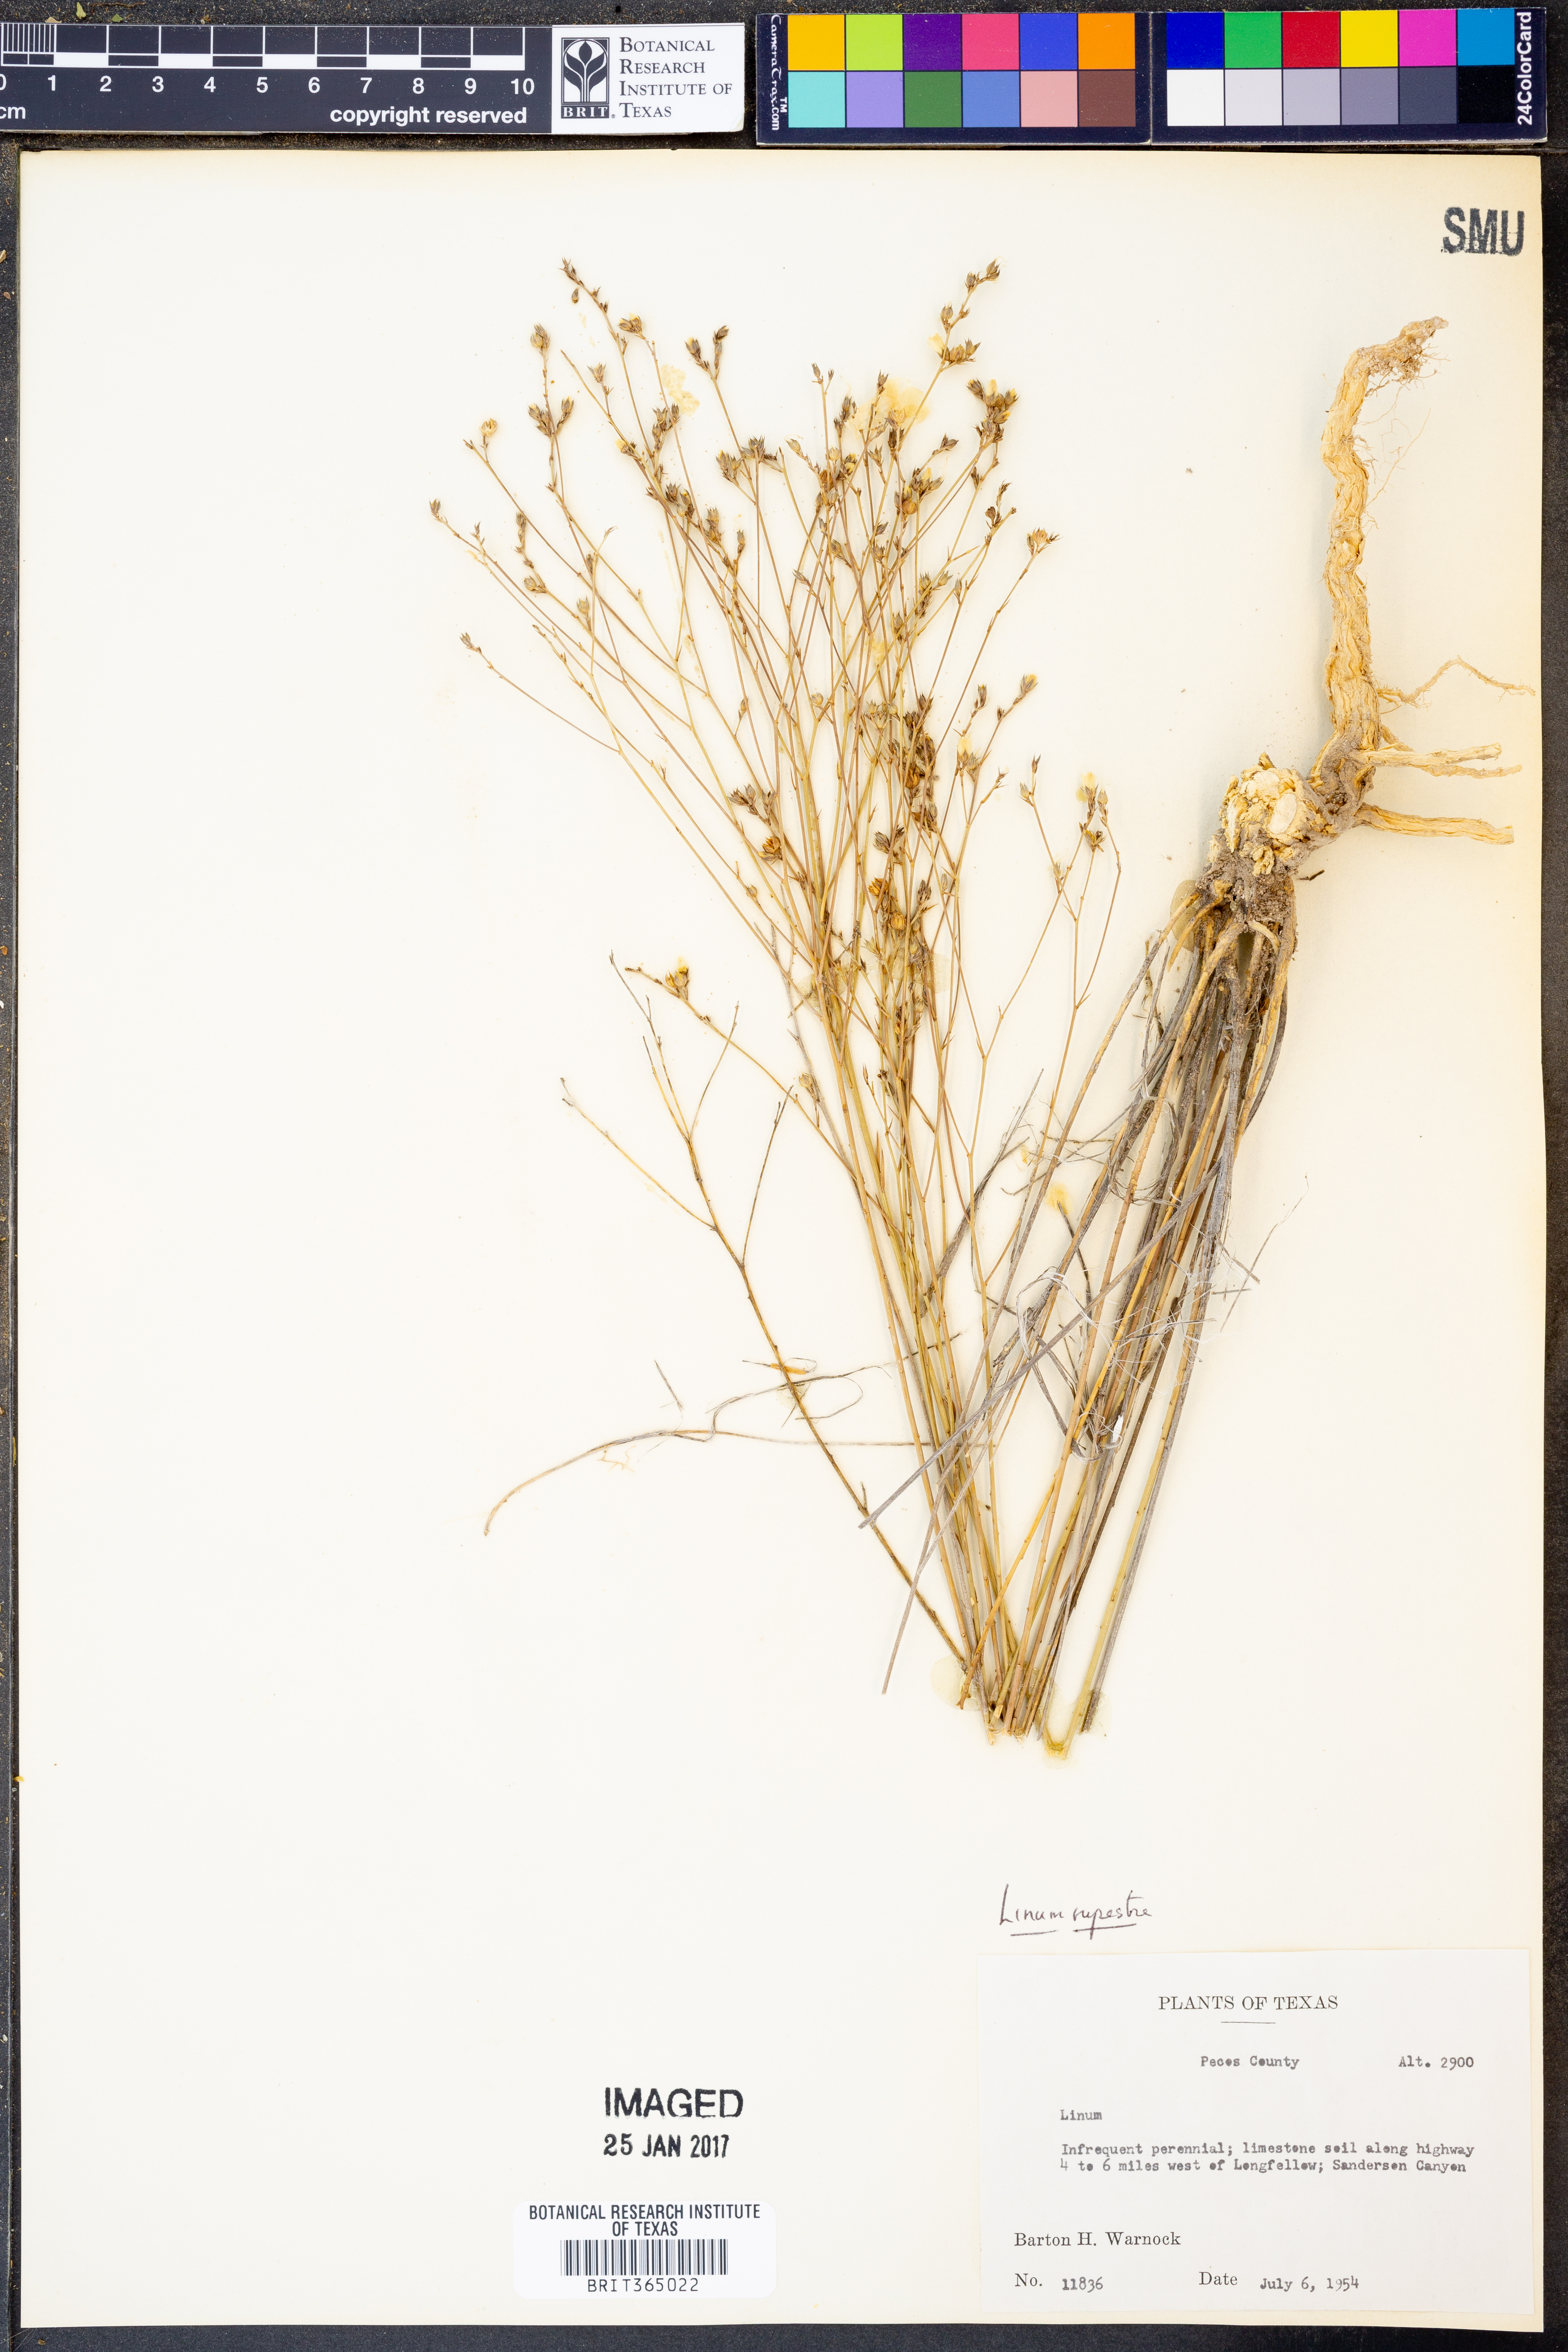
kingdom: Plantae
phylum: Tracheophyta
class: Magnoliopsida
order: Malpighiales
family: Linaceae
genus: Linum
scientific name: Linum rupestre
